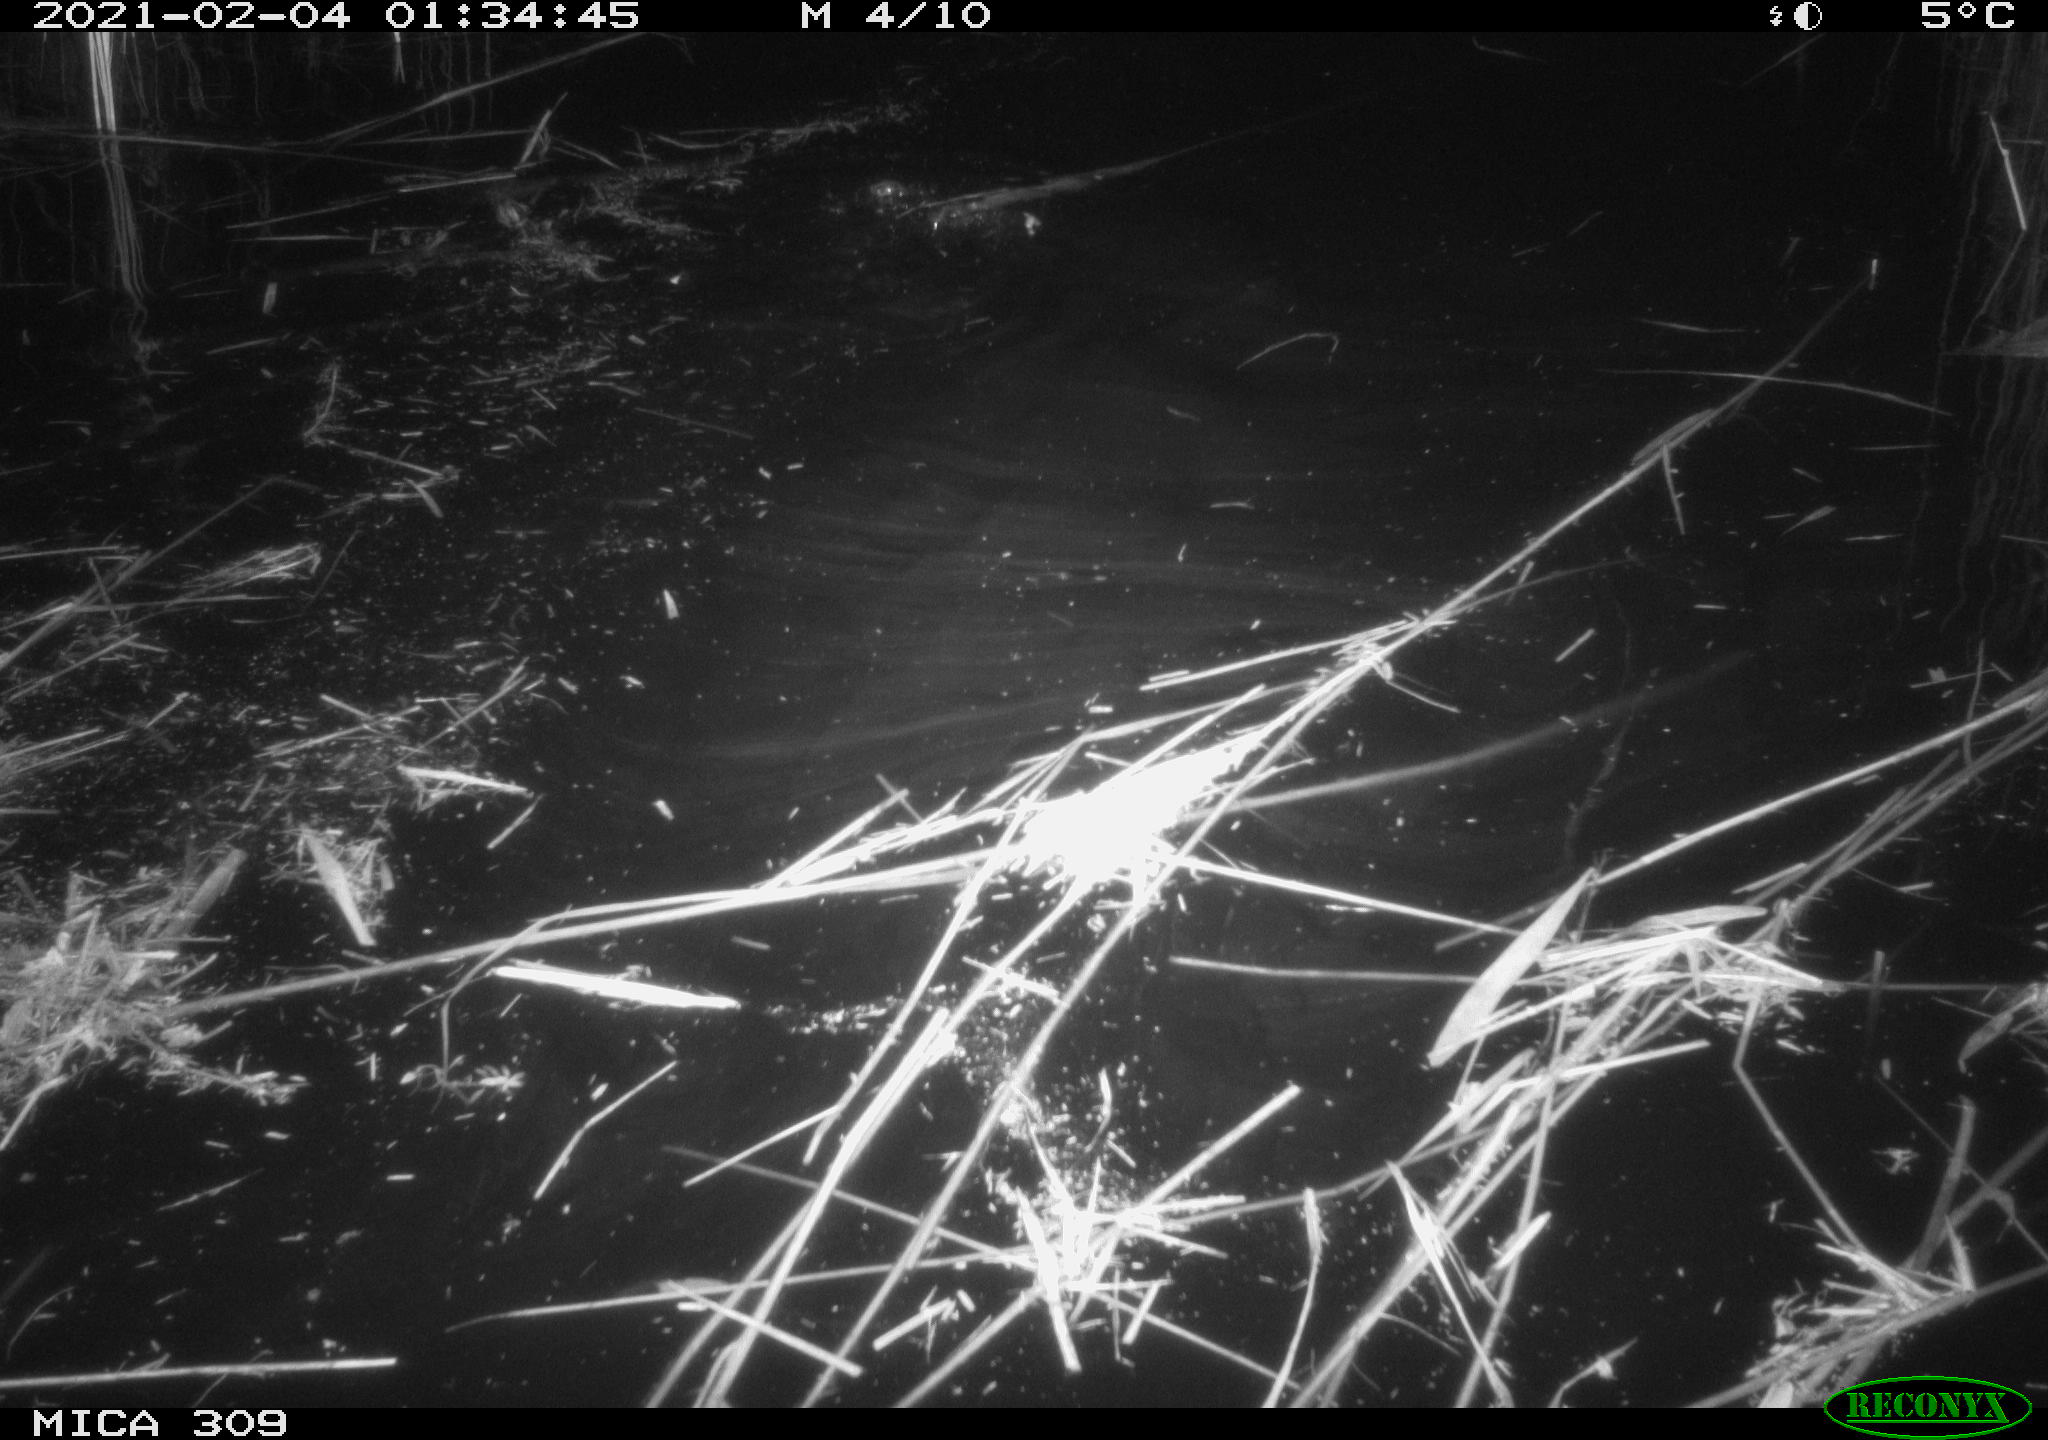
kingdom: Animalia
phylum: Chordata
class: Mammalia
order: Rodentia
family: Cricetidae
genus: Ondatra
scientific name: Ondatra zibethicus
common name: Muskrat
